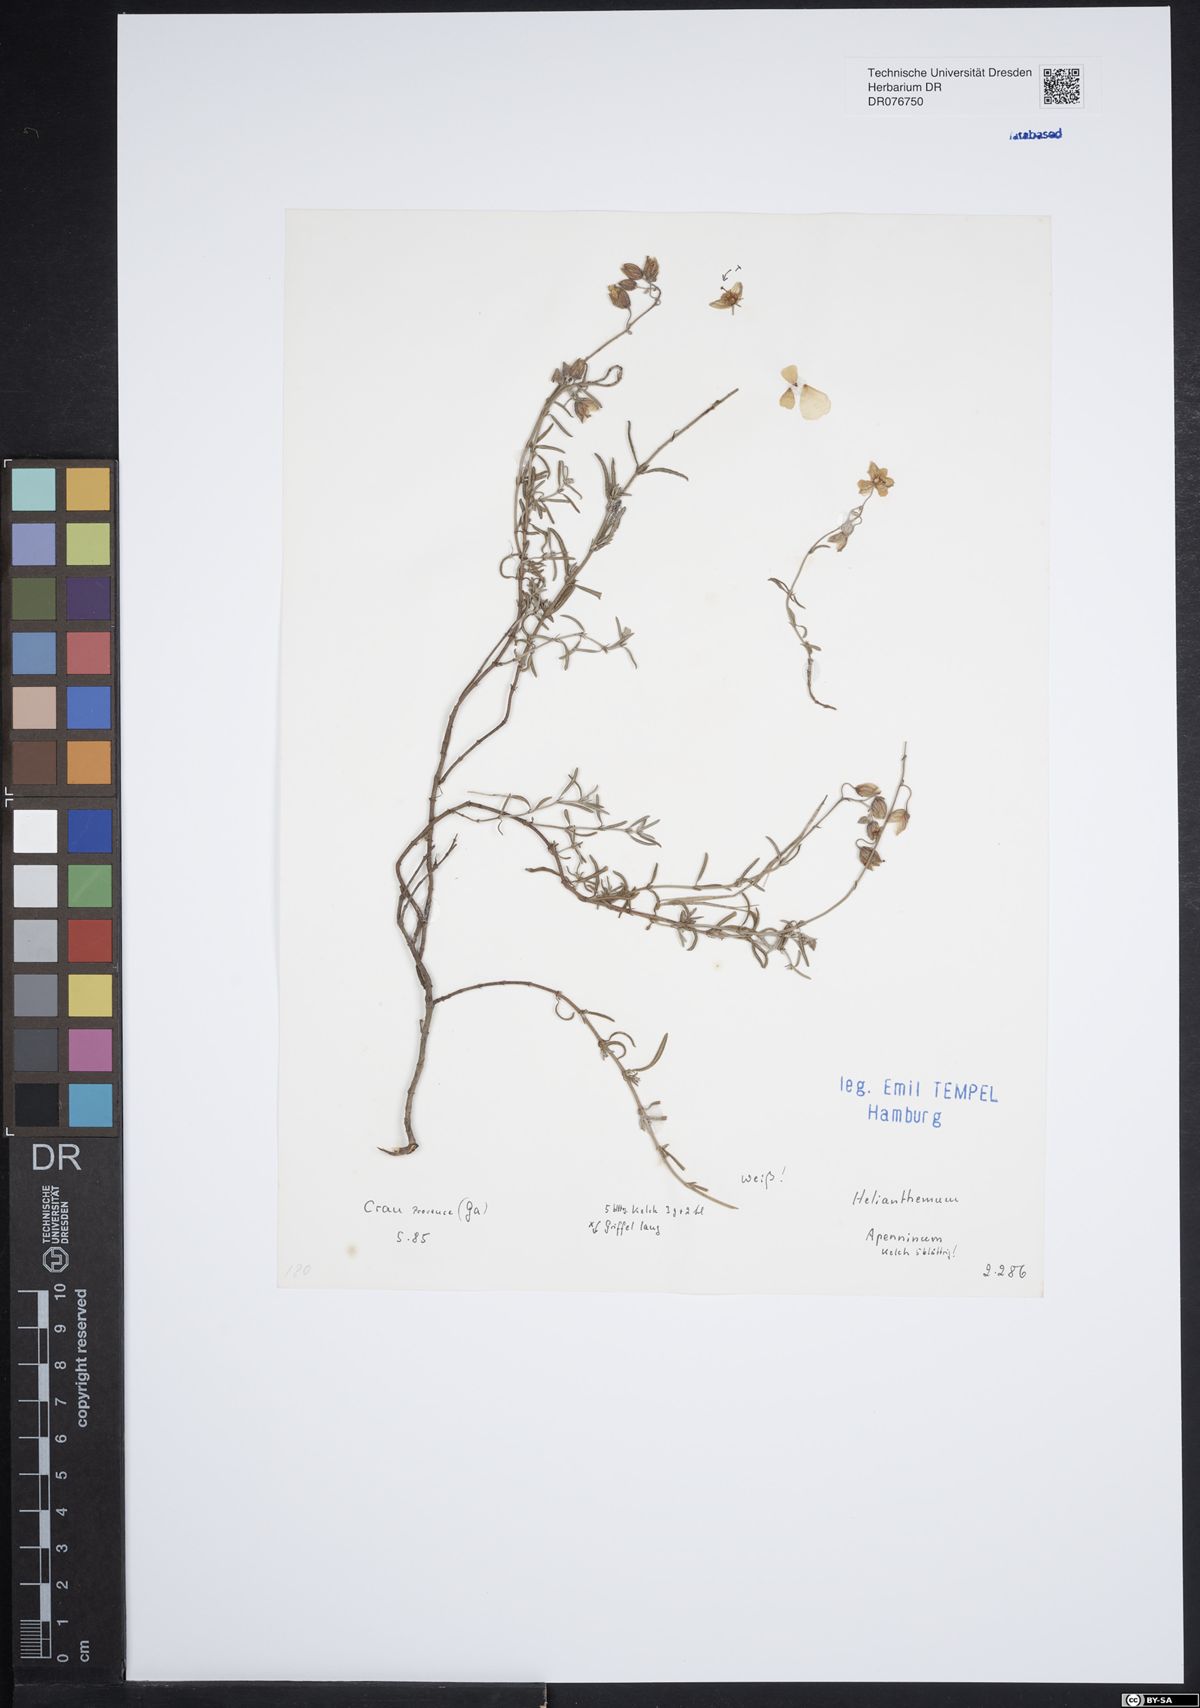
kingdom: Plantae
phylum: Tracheophyta
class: Magnoliopsida
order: Malvales
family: Cistaceae
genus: Helianthemum
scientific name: Helianthemum apenninum
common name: White rock-rose
